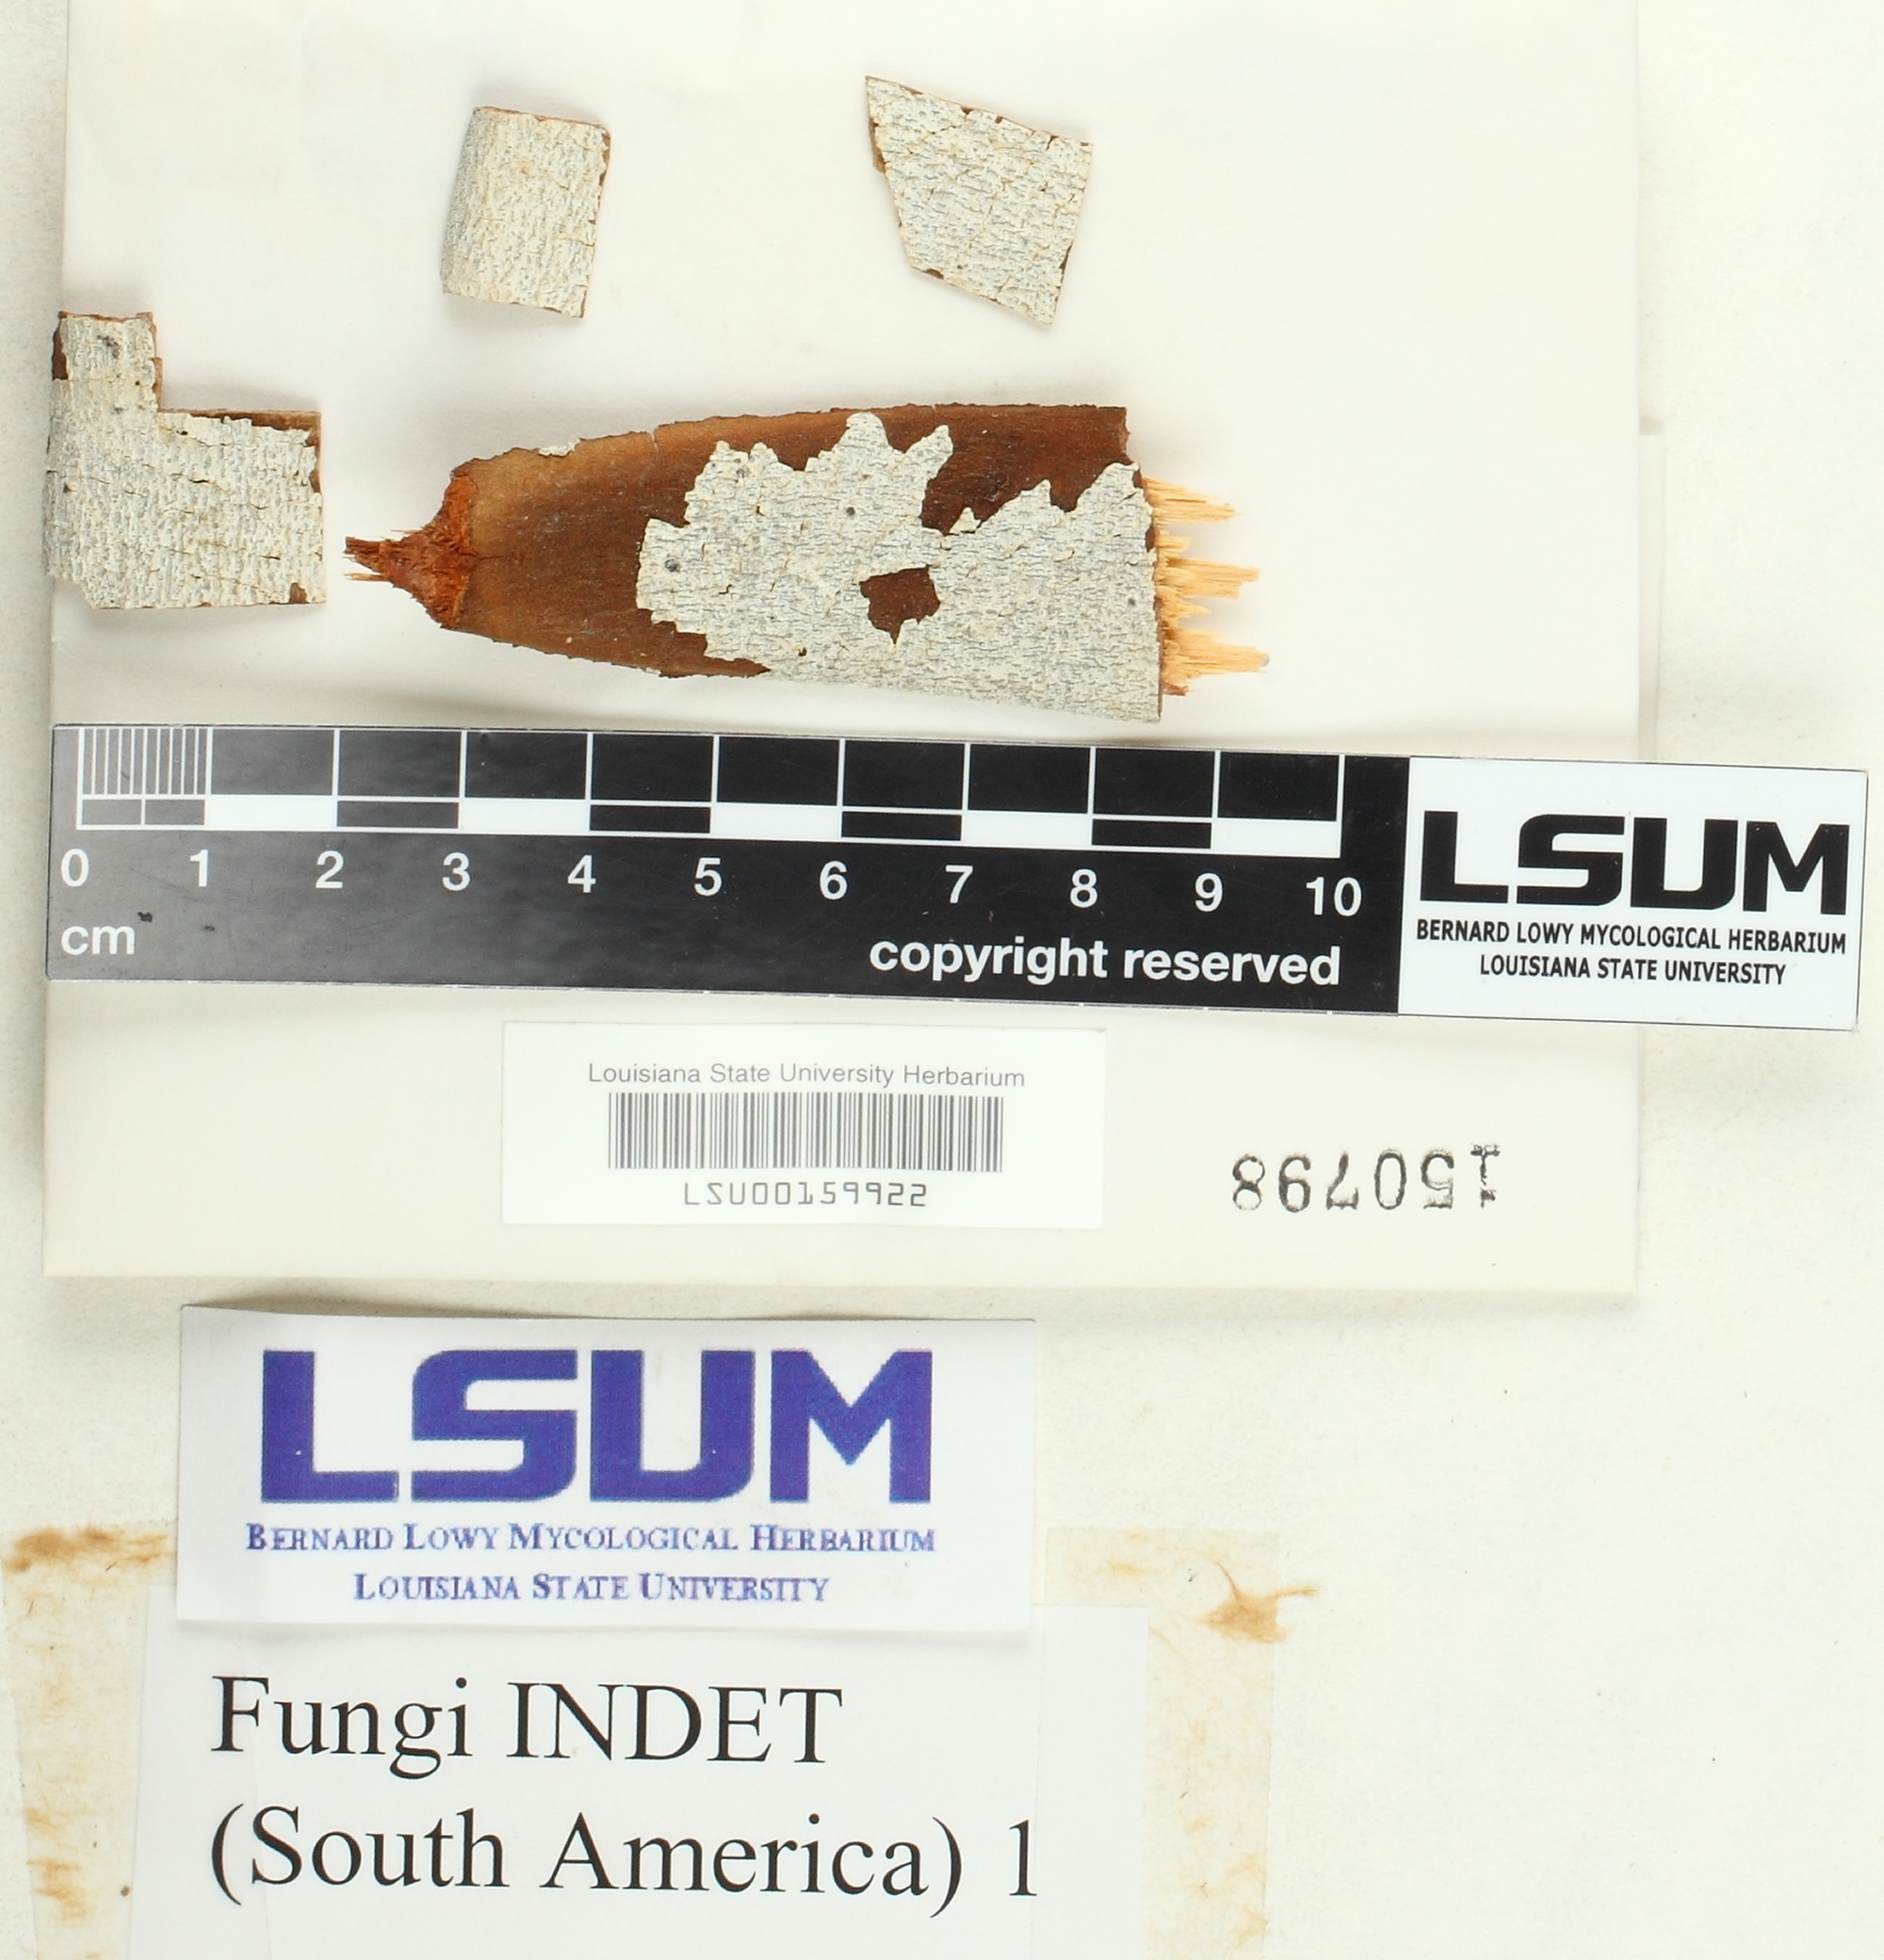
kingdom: Fungi
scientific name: Fungi
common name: Fungi
